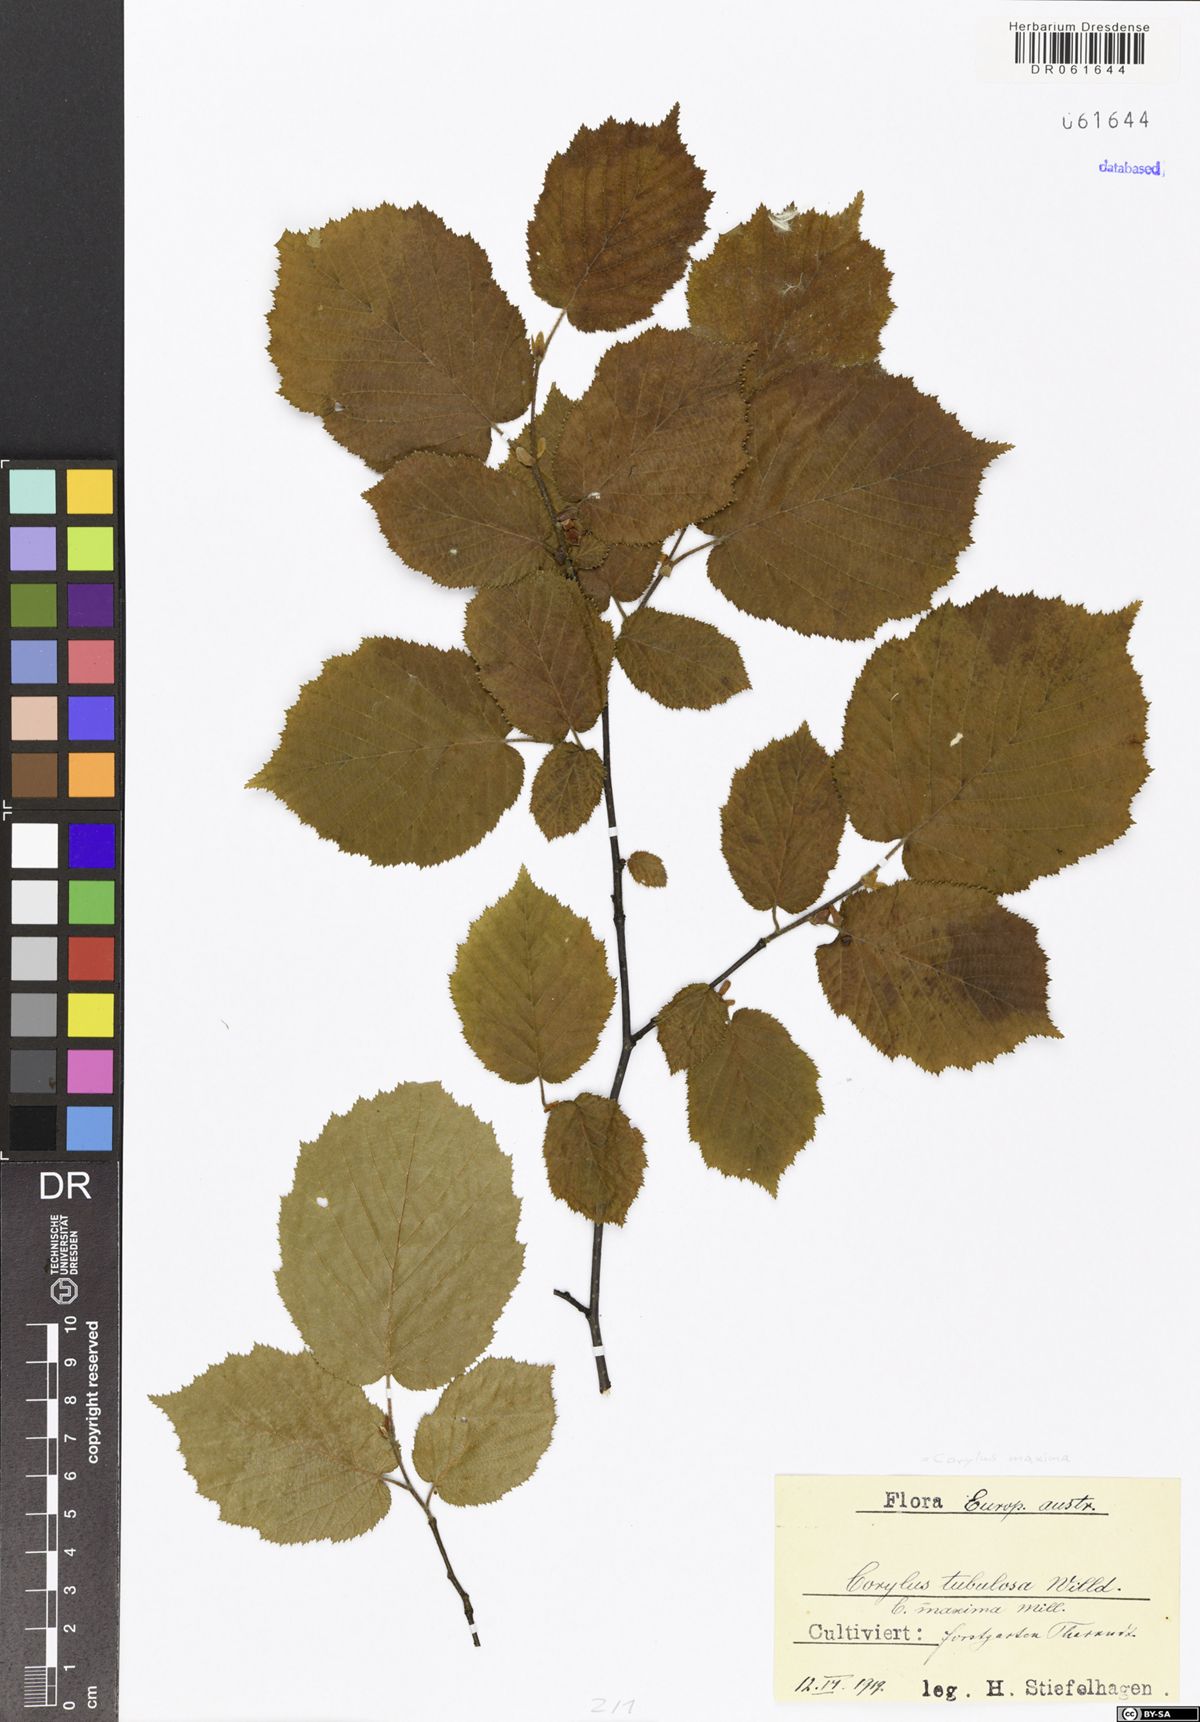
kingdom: Plantae
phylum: Tracheophyta
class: Magnoliopsida
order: Fagales
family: Betulaceae
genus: Corylus
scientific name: Corylus maxima
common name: Filbert
